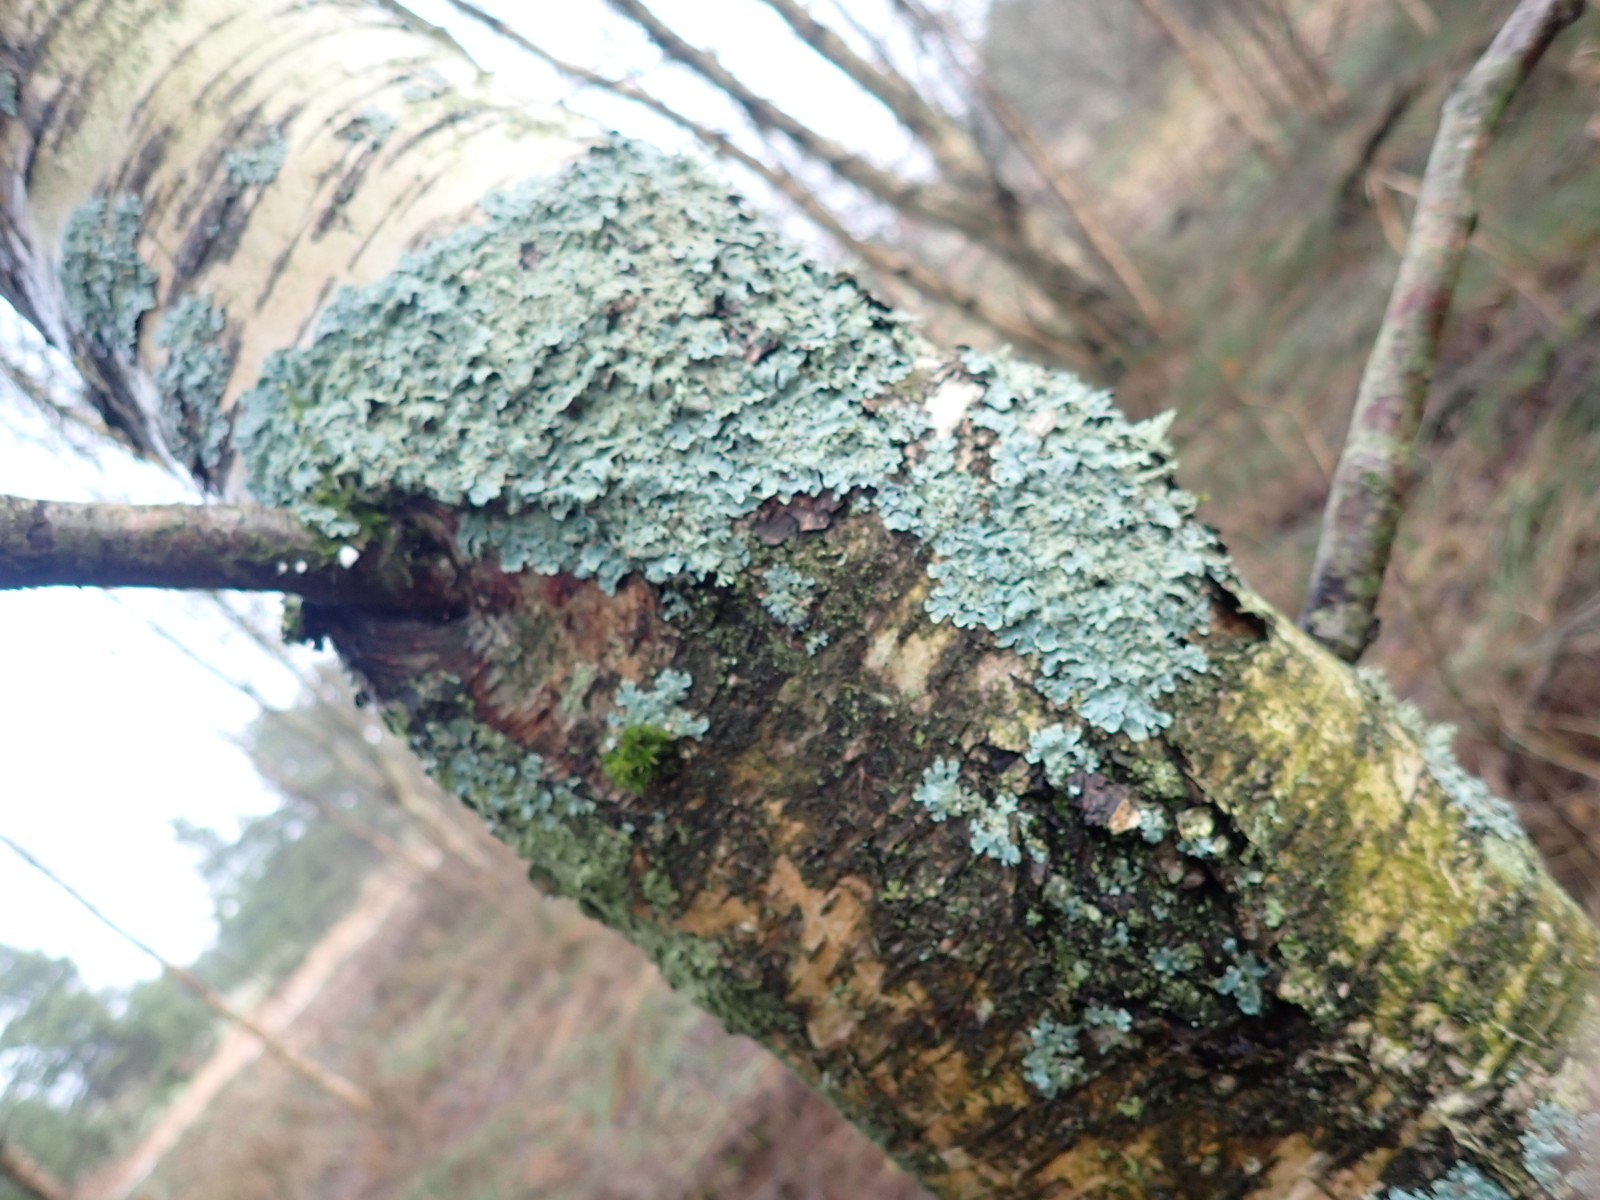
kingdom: Fungi
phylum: Ascomycota
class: Lecanoromycetes
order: Lecanorales
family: Parmeliaceae
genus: Parmelia
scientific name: Parmelia sulcata
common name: rynket skållav
